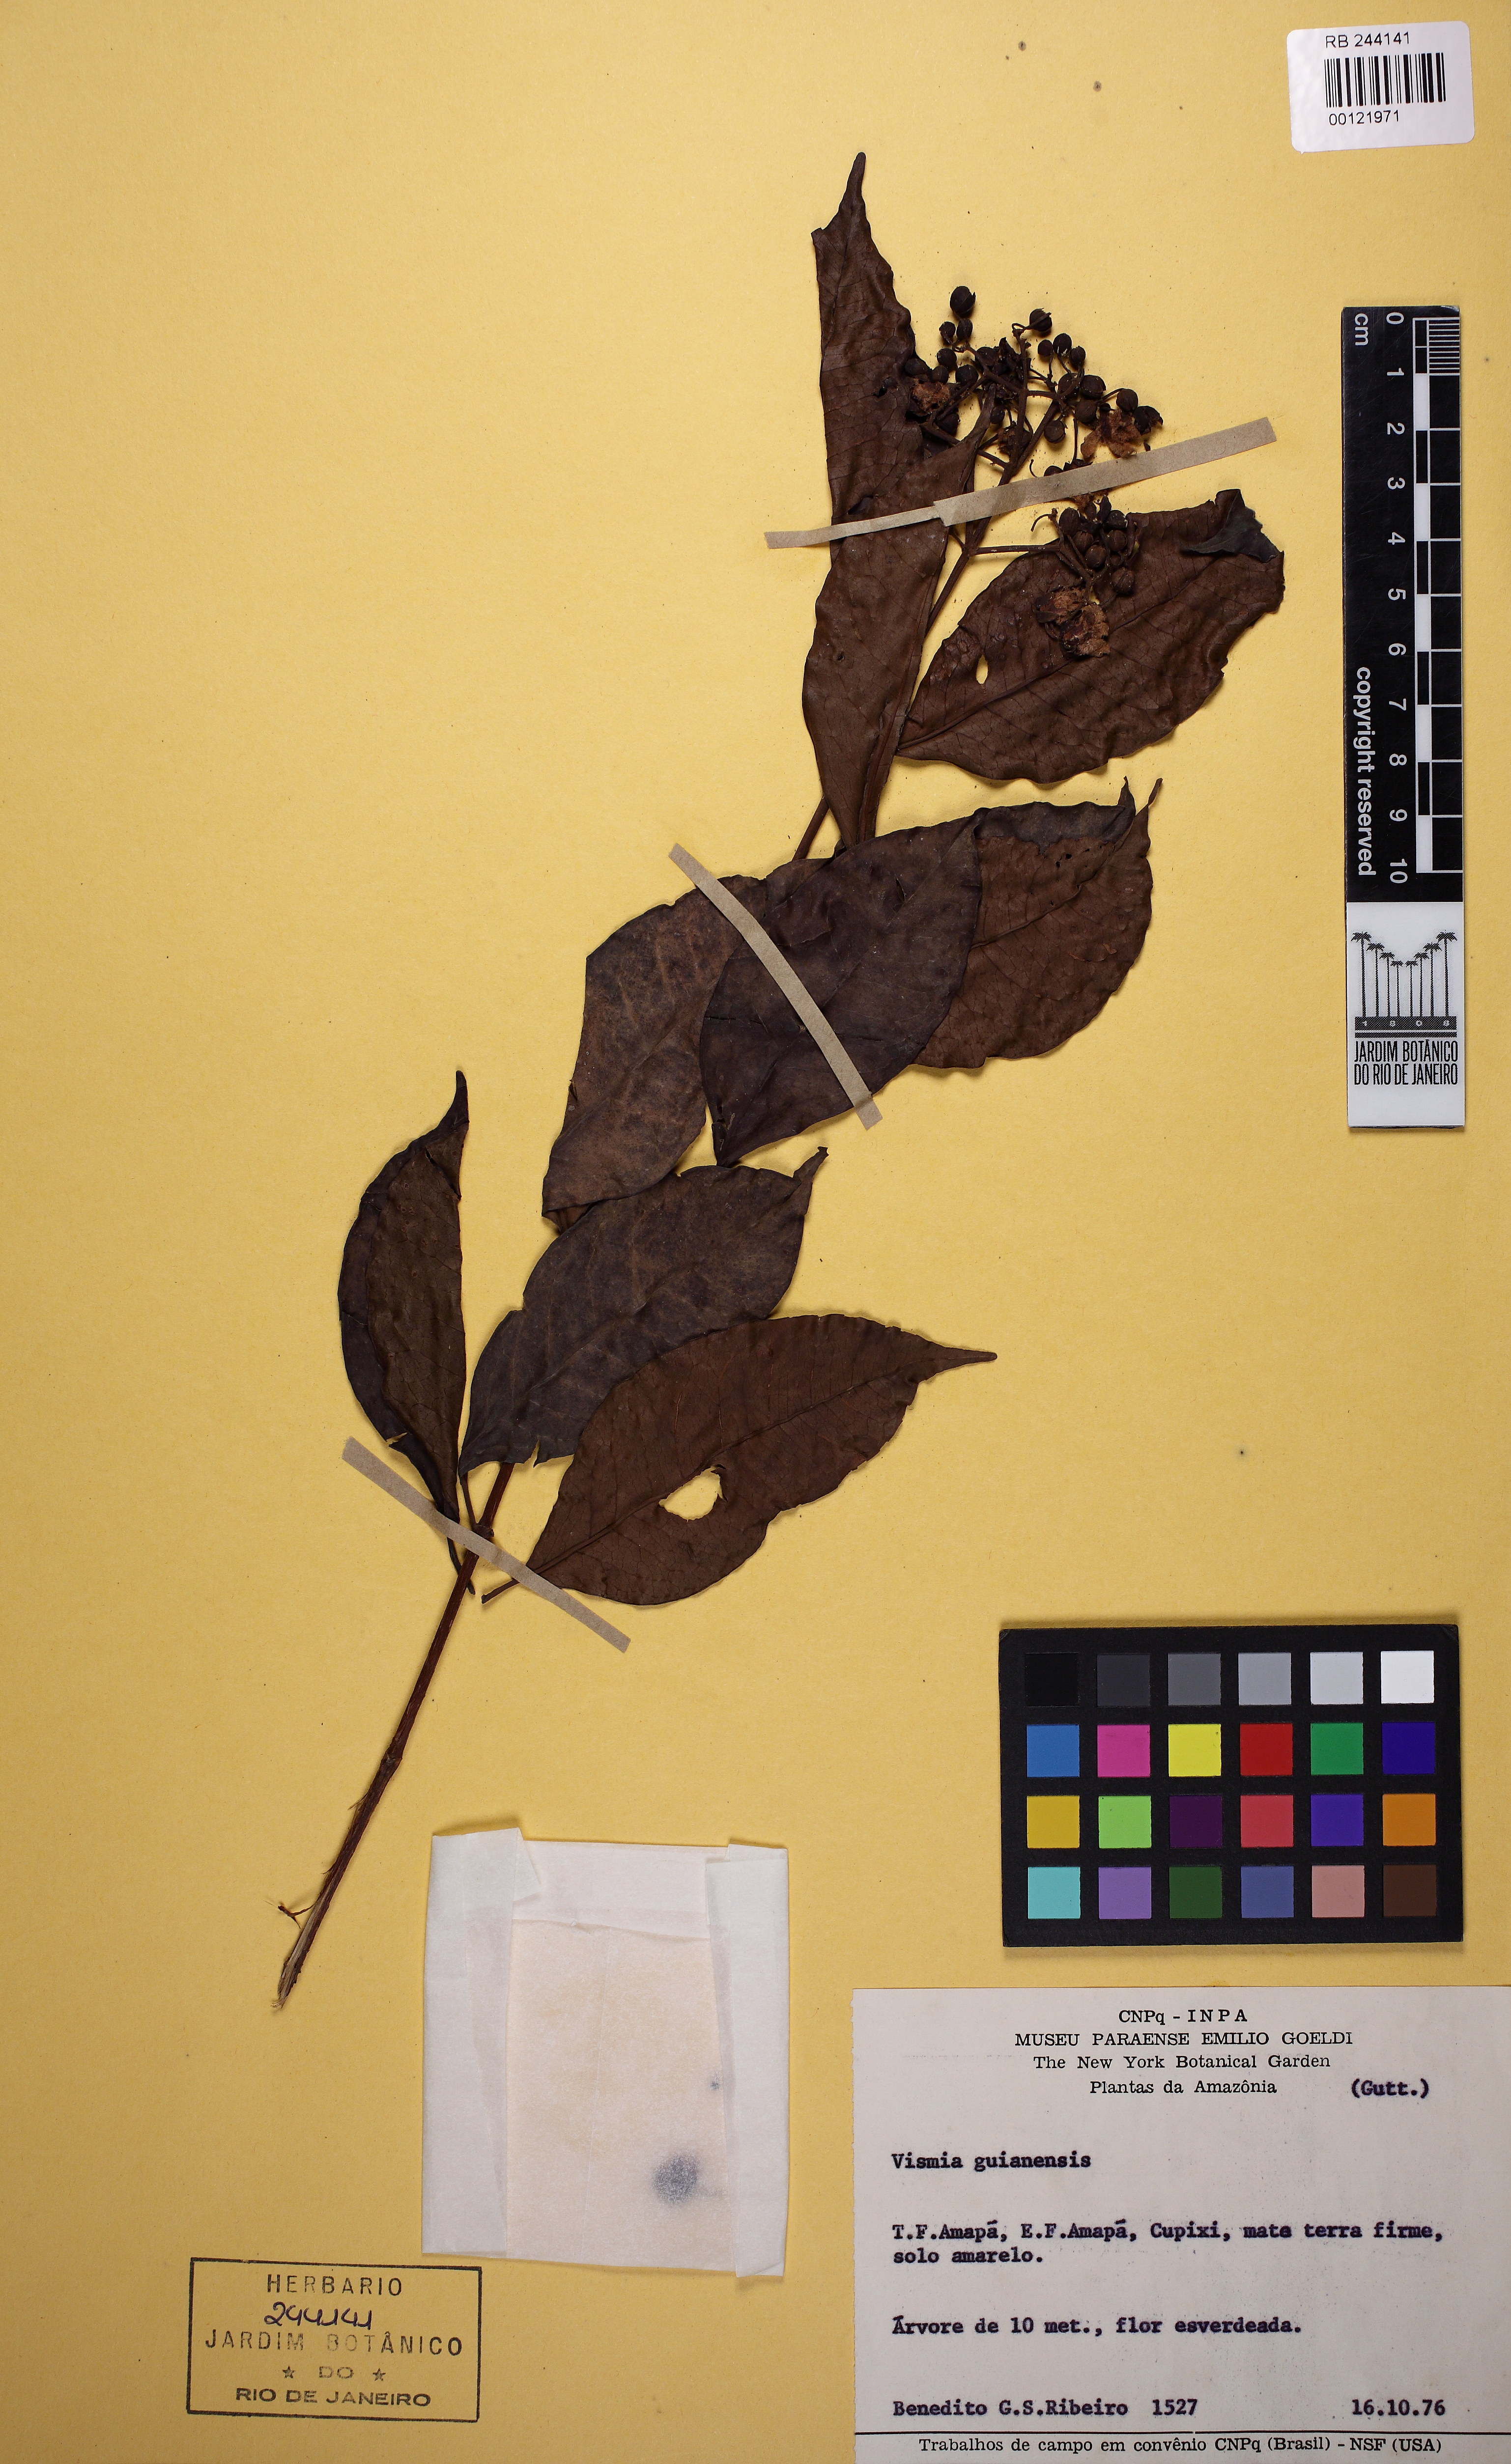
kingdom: Plantae
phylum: Tracheophyta
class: Magnoliopsida
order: Malpighiales
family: Hypericaceae
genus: Vismia
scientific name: Vismia cayennensis
